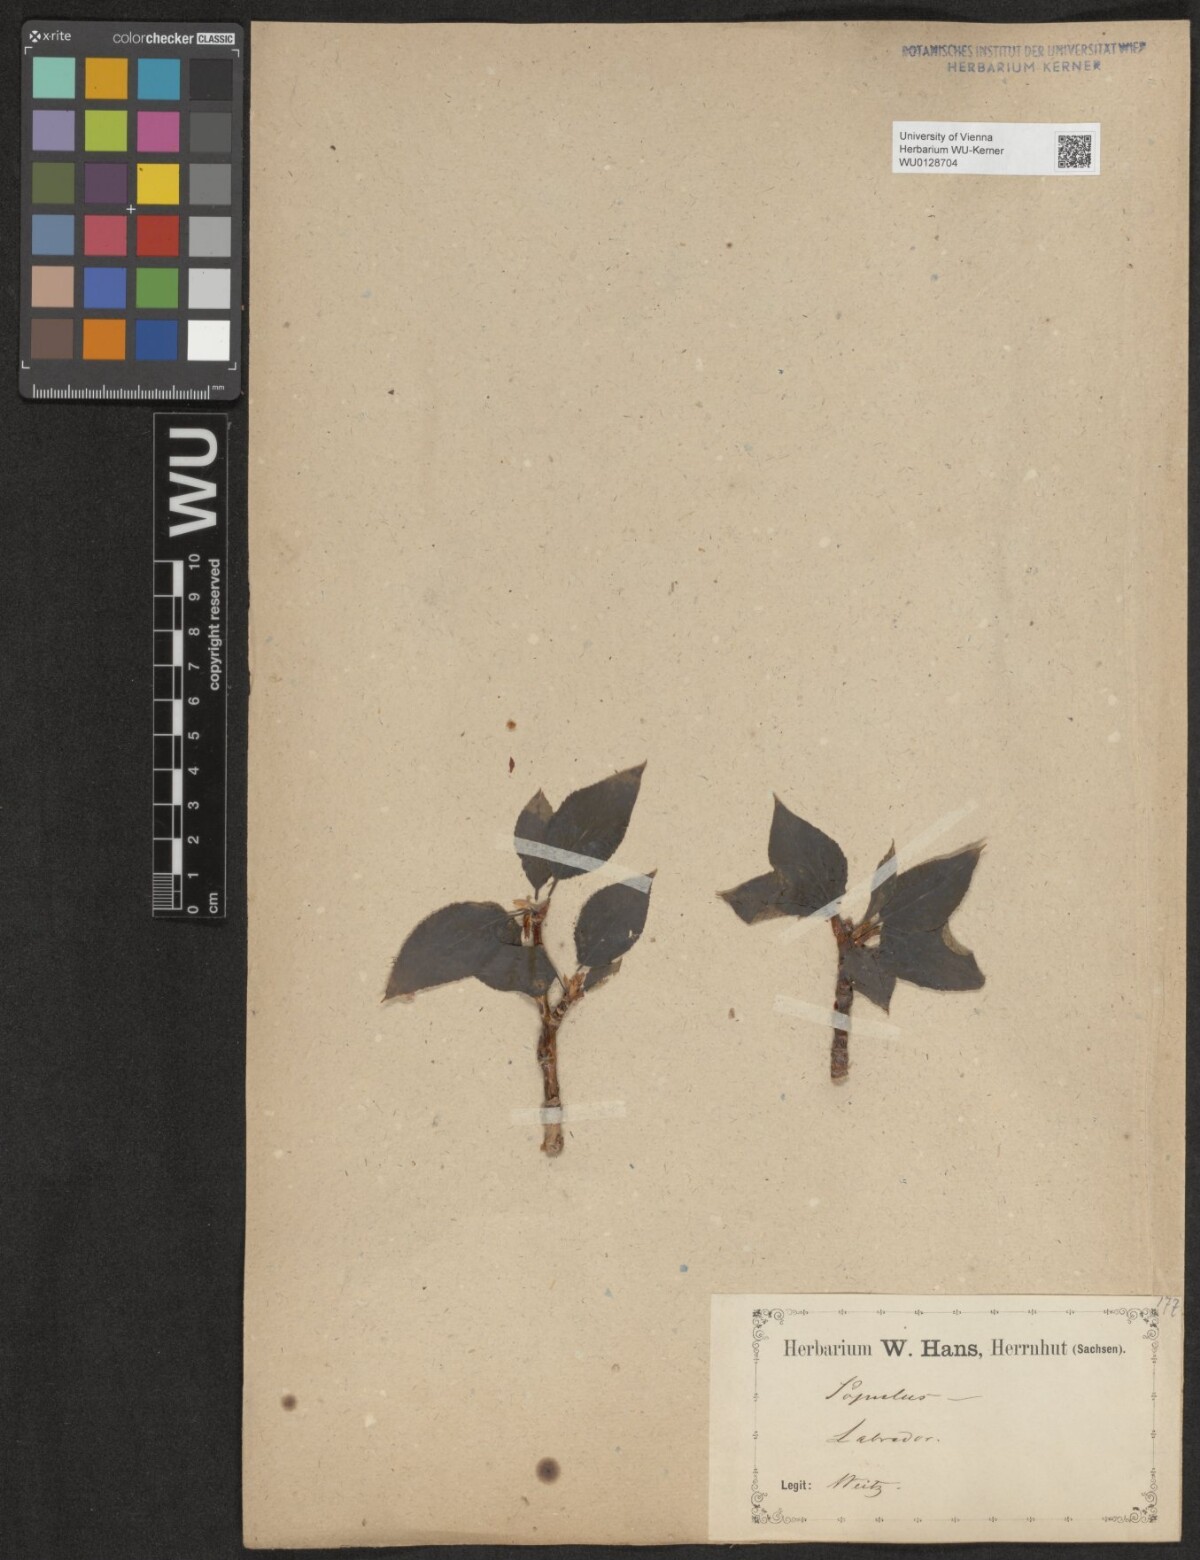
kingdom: Plantae
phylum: Tracheophyta
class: Magnoliopsida
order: Malpighiales
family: Salicaceae
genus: Populus
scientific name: Populus
